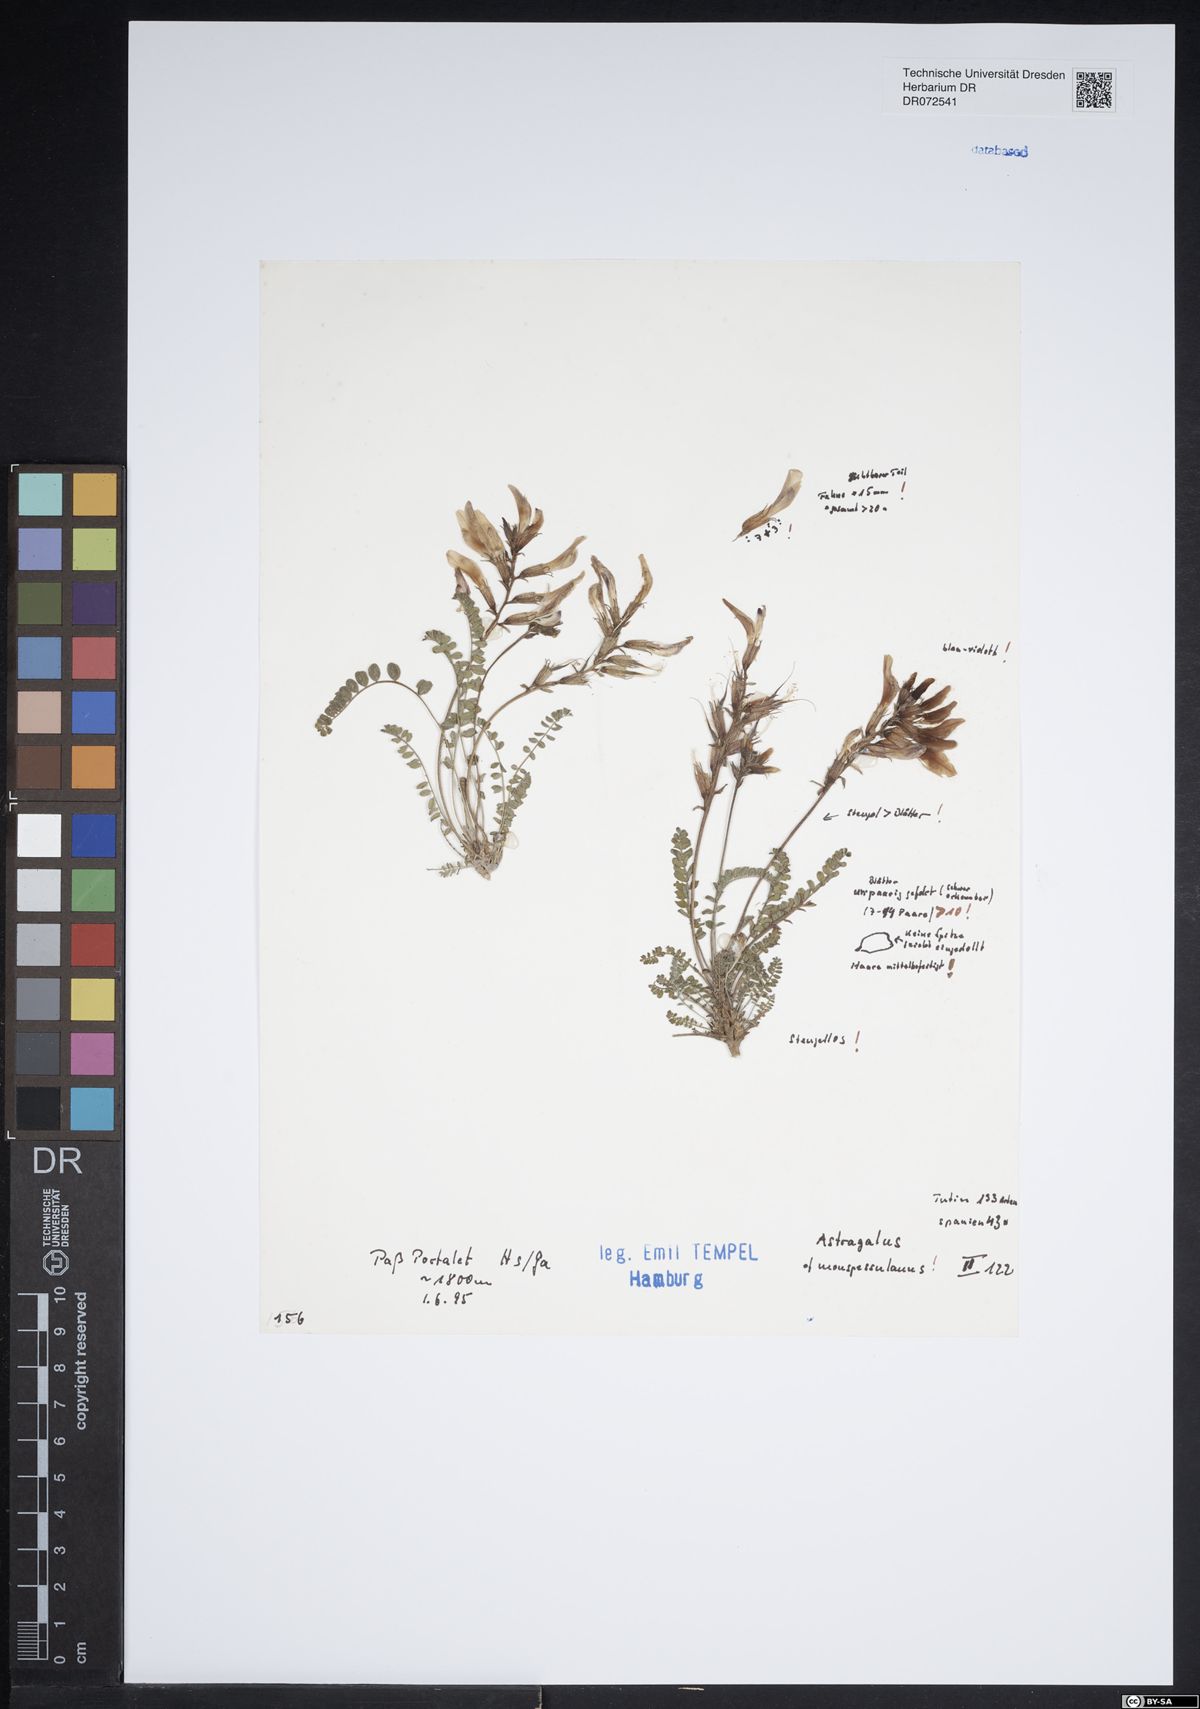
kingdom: Plantae
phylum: Tracheophyta
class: Magnoliopsida
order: Fabales
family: Fabaceae
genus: Astragalus
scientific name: Astragalus monspessulanus
